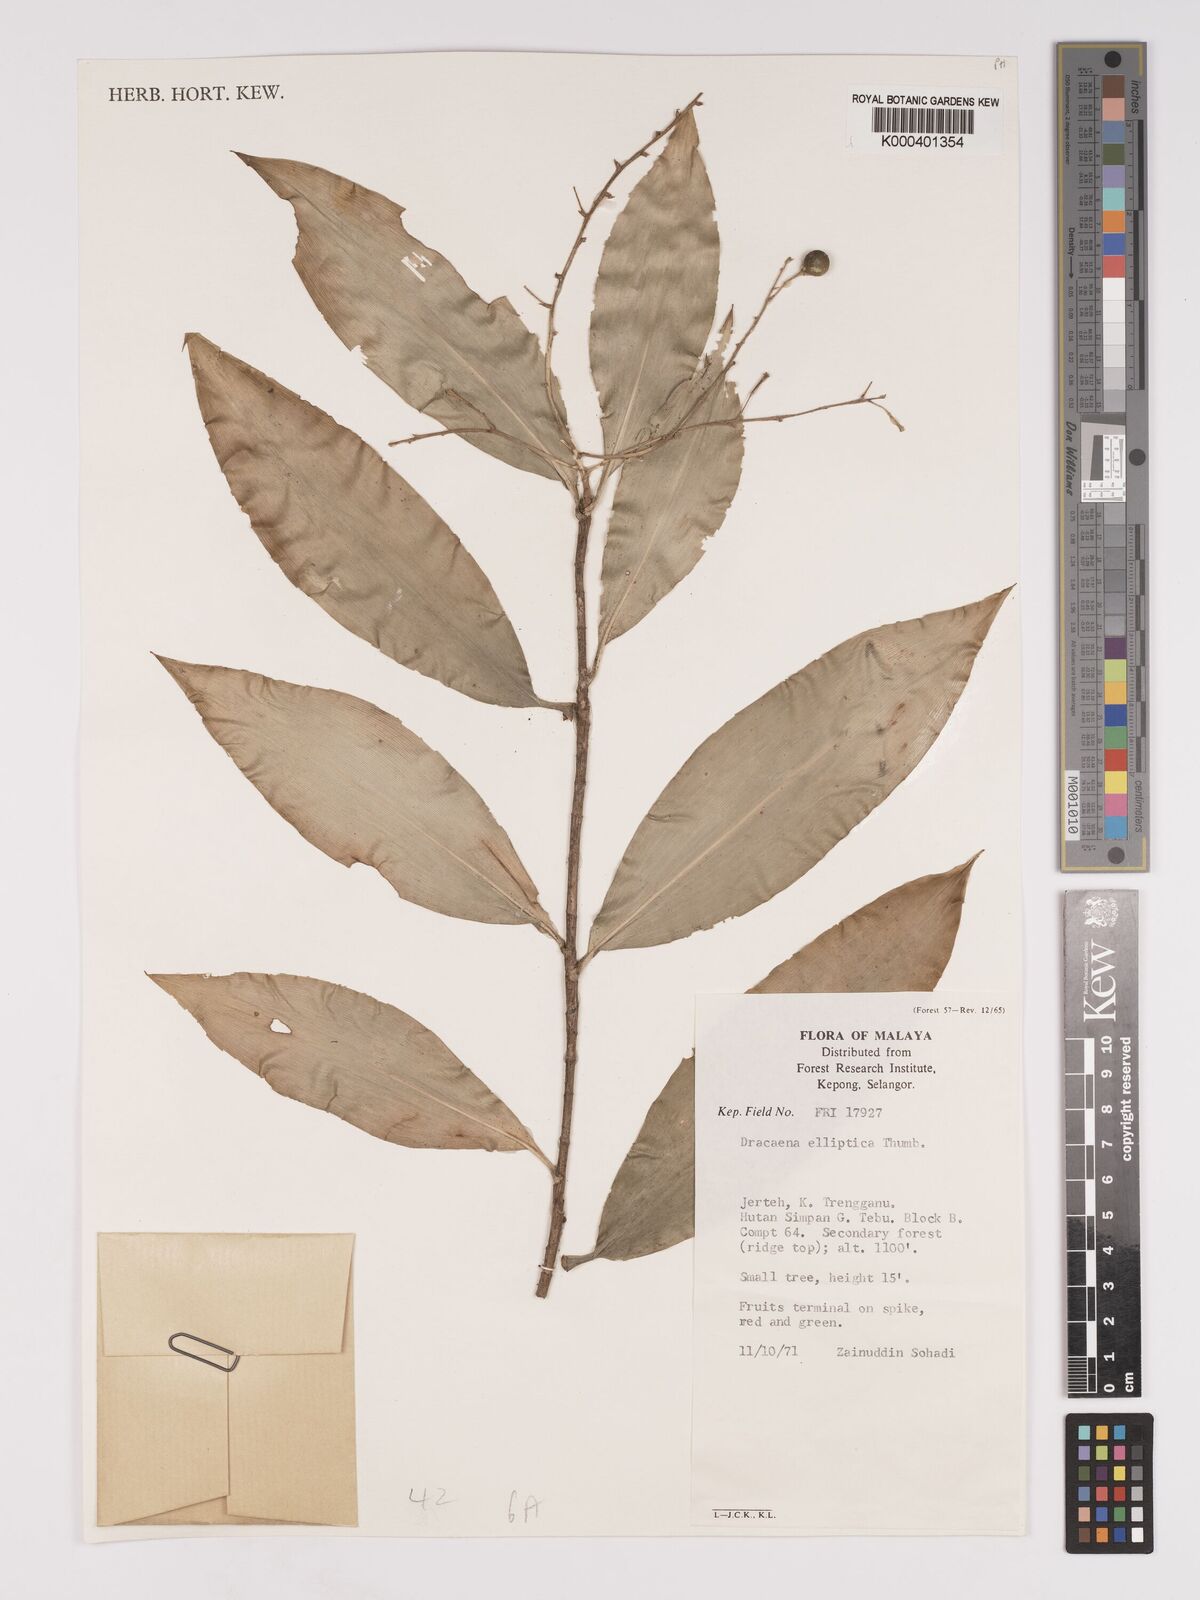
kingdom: Plantae
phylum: Tracheophyta
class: Liliopsida
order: Asparagales
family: Asparagaceae
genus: Dracaena
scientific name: Dracaena elliptica
